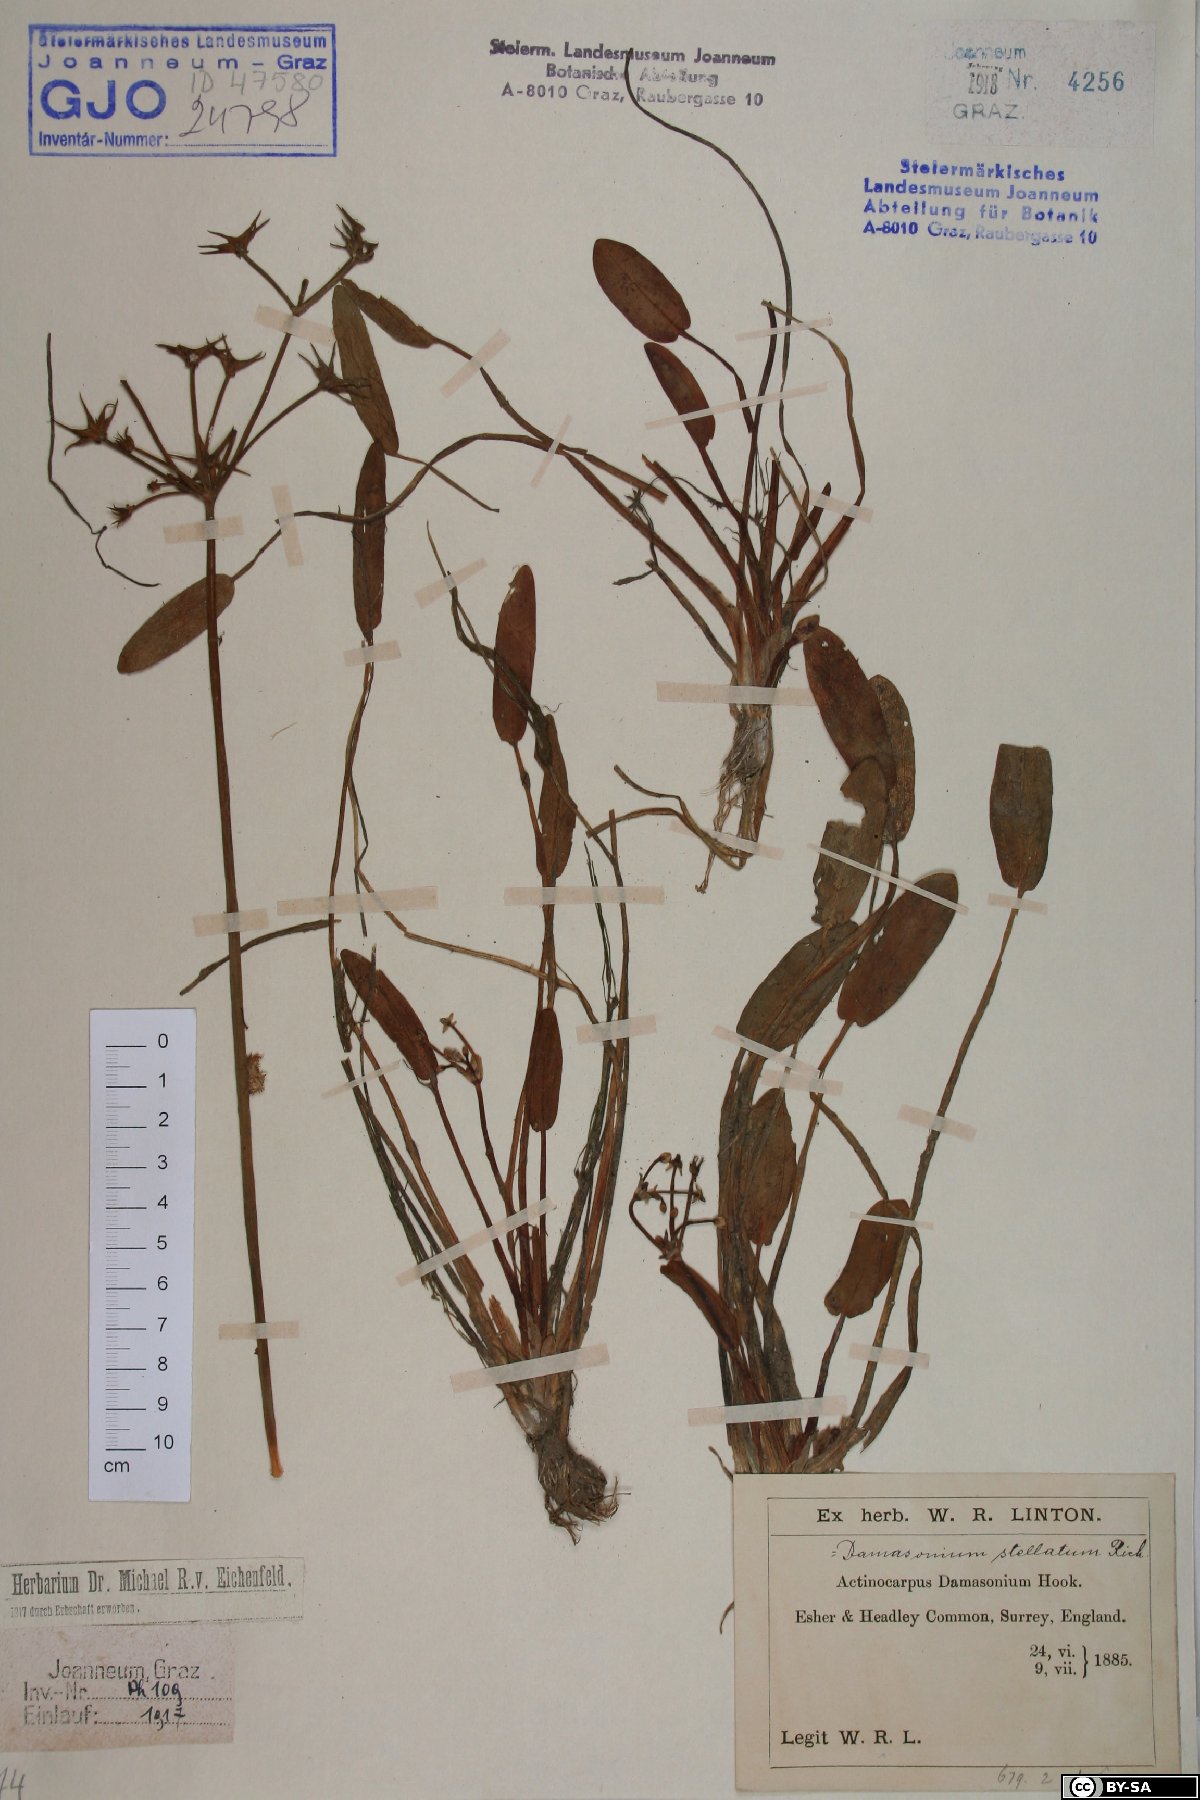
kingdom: Plantae
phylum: Tracheophyta
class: Liliopsida
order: Alismatales
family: Alismataceae
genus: Damasonium
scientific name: Damasonium alisma
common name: Starfruit
